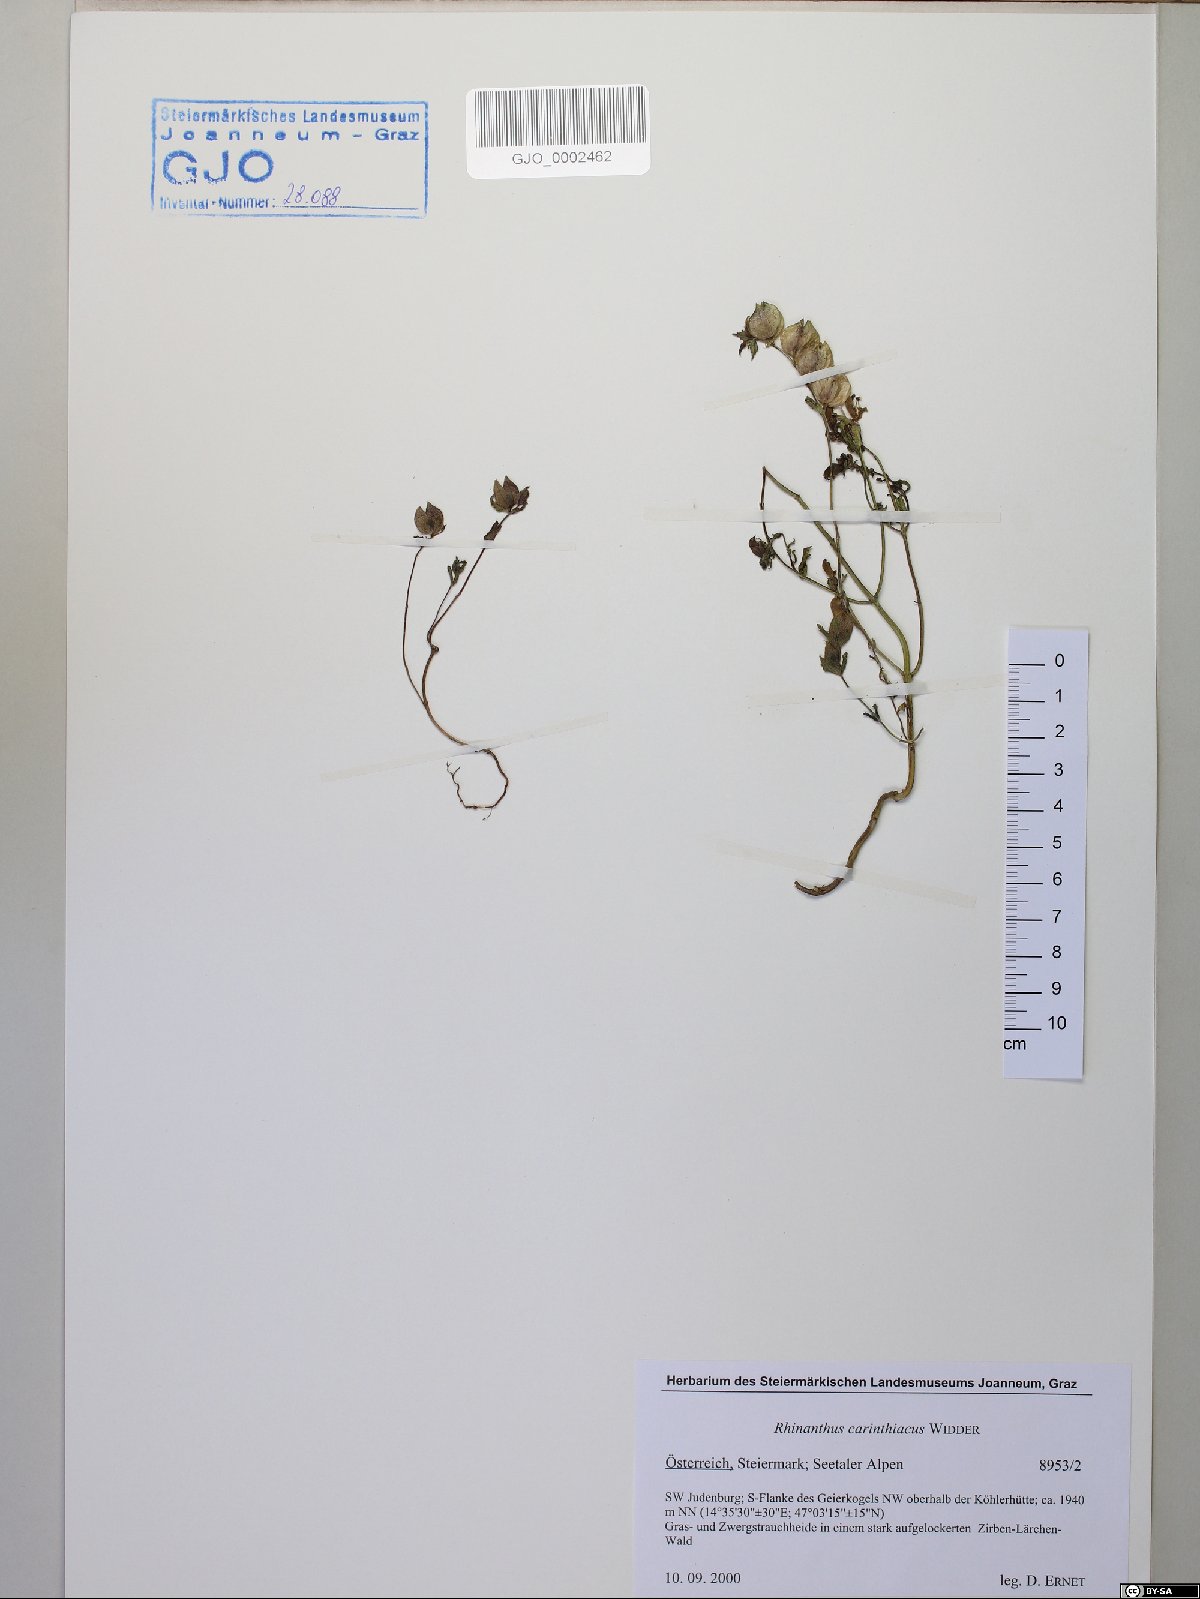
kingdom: Plantae
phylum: Tracheophyta
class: Magnoliopsida
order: Lamiales
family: Orobanchaceae
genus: Rhinanthus
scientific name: Rhinanthus carinthiacus
